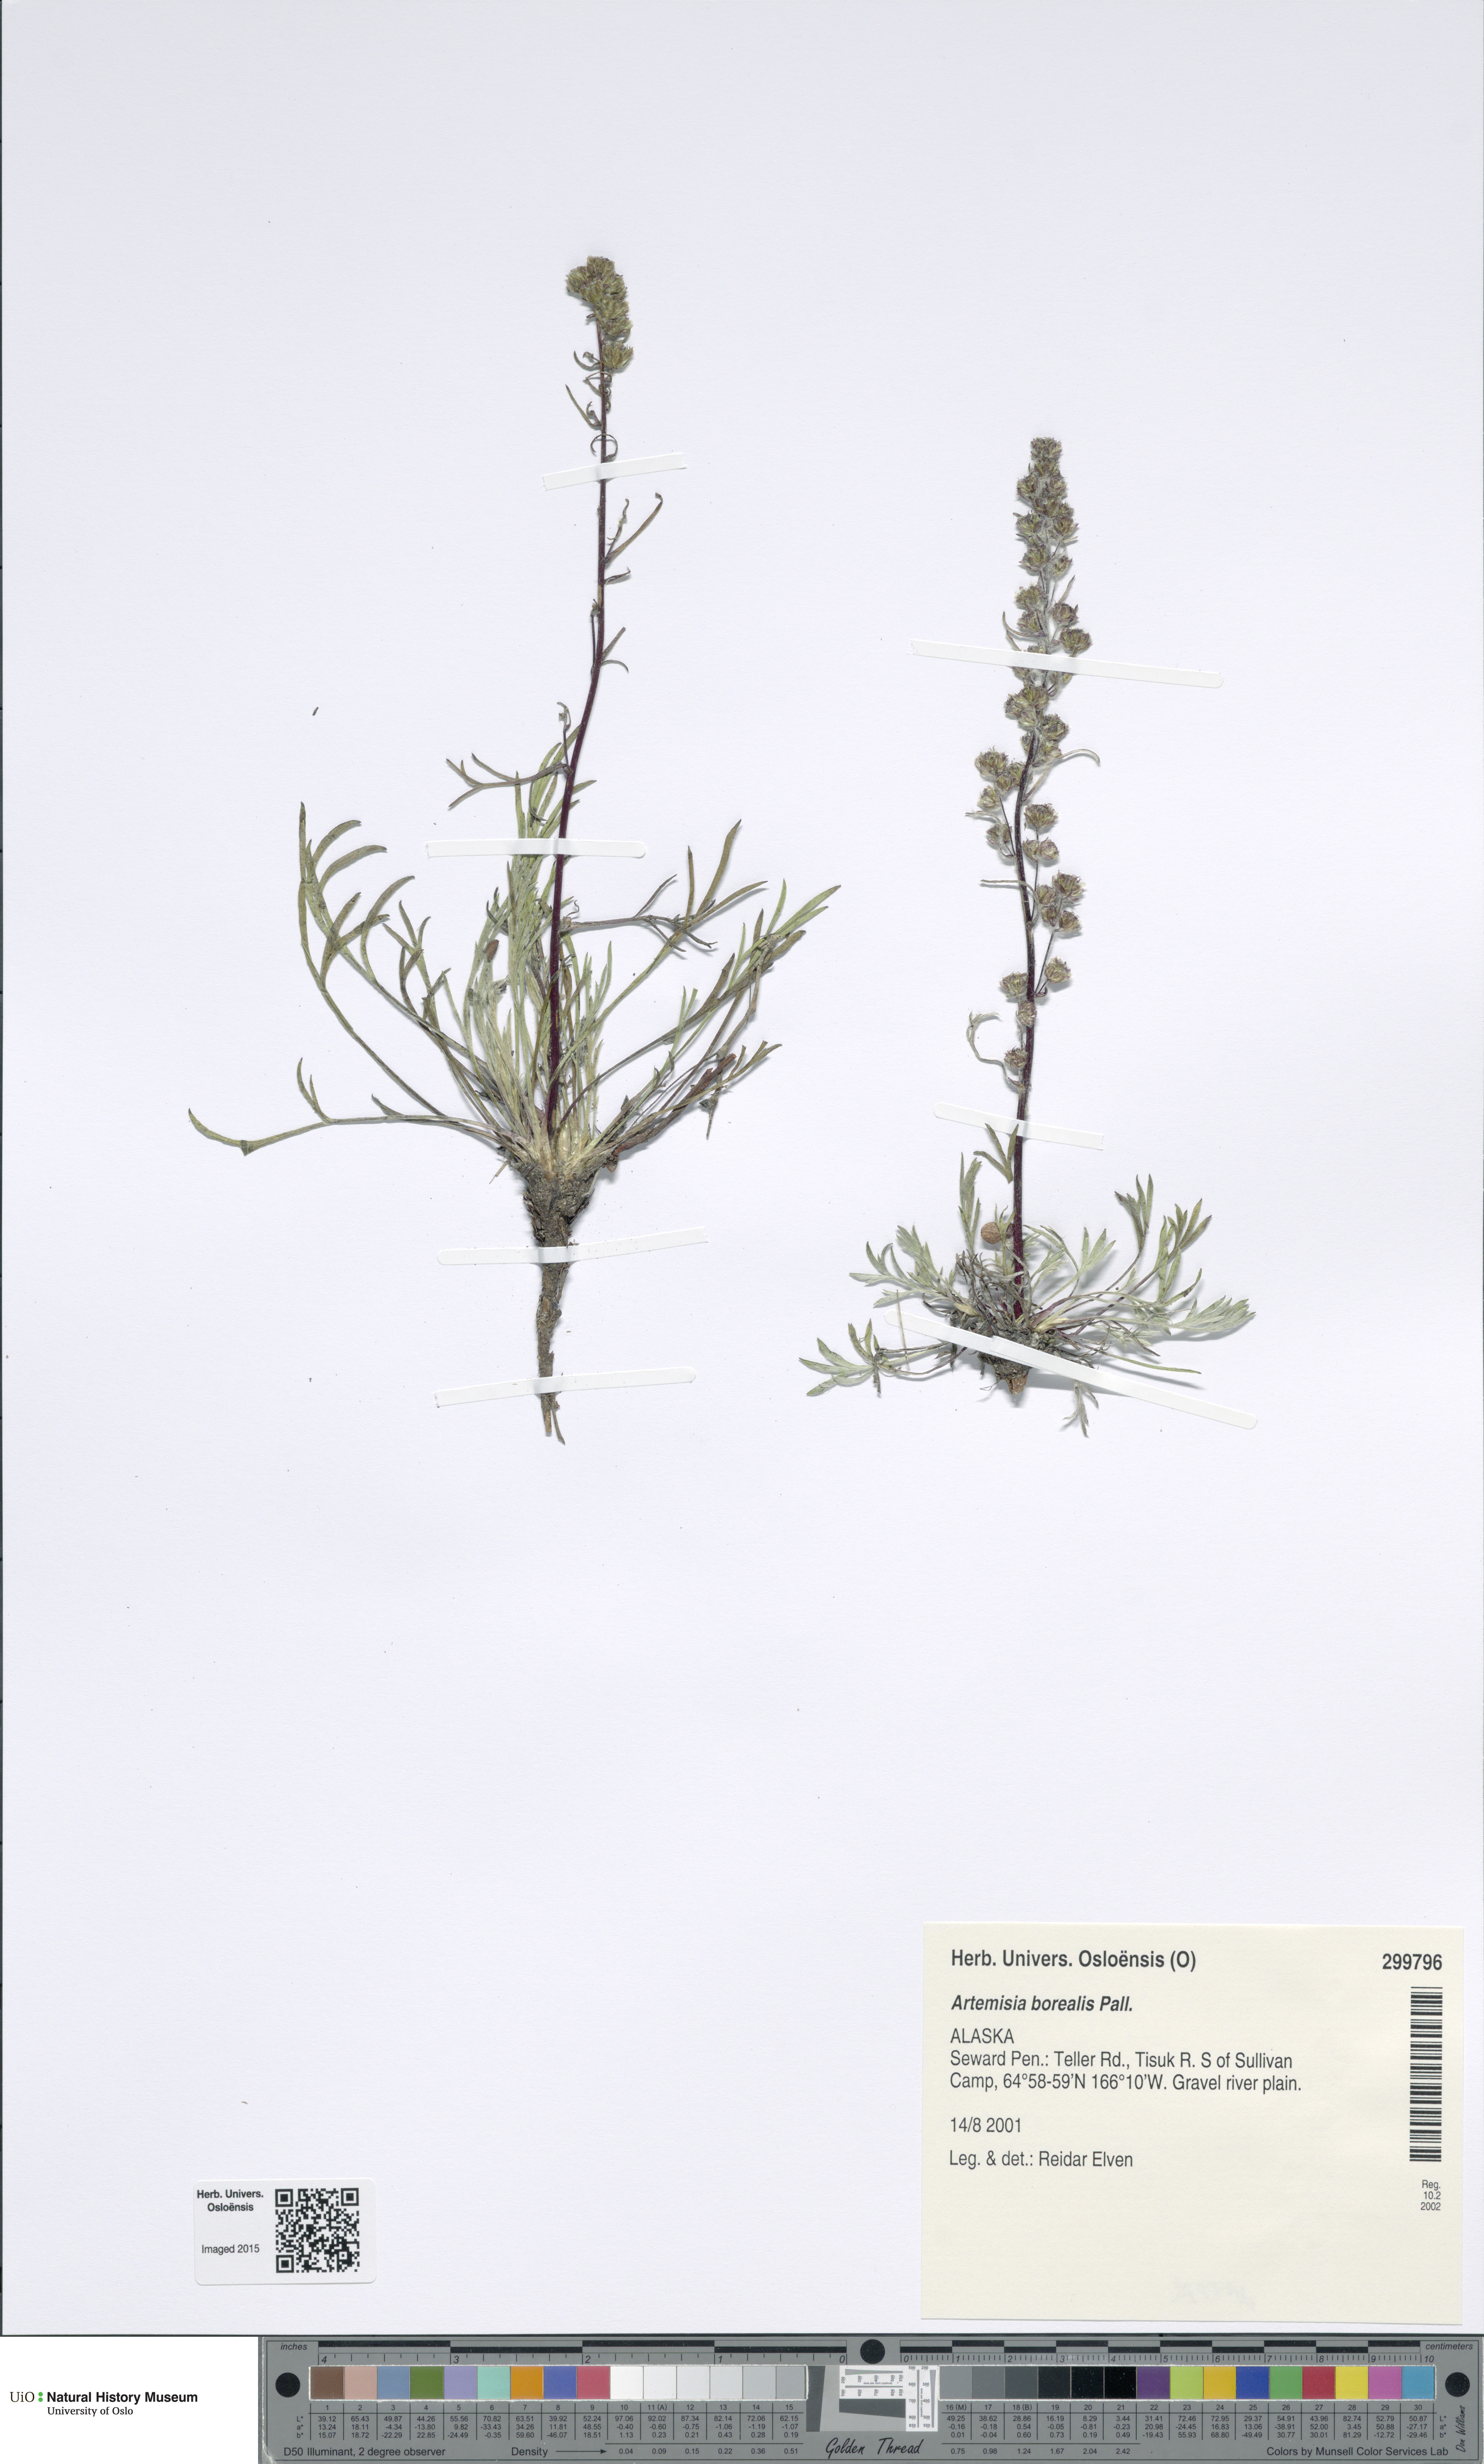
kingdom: Plantae
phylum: Tracheophyta
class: Magnoliopsida
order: Asterales
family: Asteraceae
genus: Artemisia
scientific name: Artemisia borealis
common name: Boreal sage
